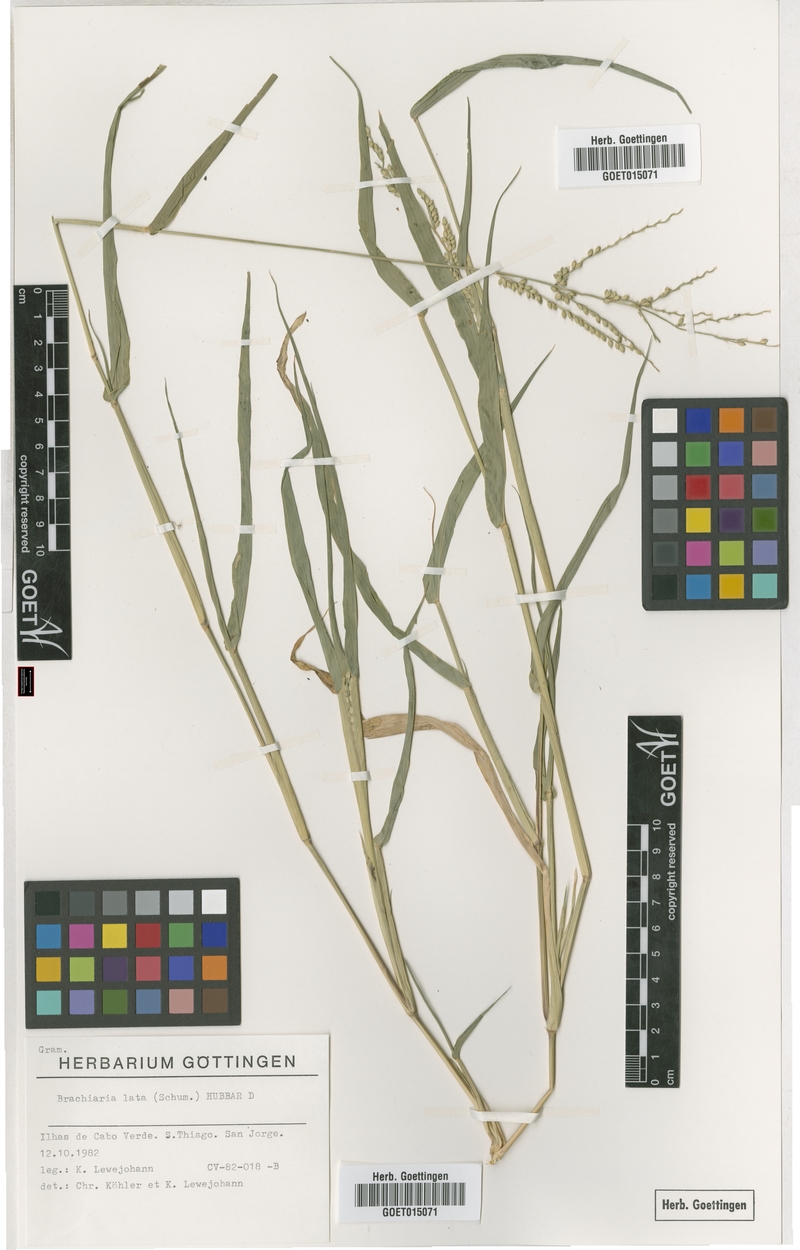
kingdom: Plantae
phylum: Tracheophyta
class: Liliopsida
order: Poales
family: Poaceae
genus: Urochloa
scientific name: Urochloa lata
